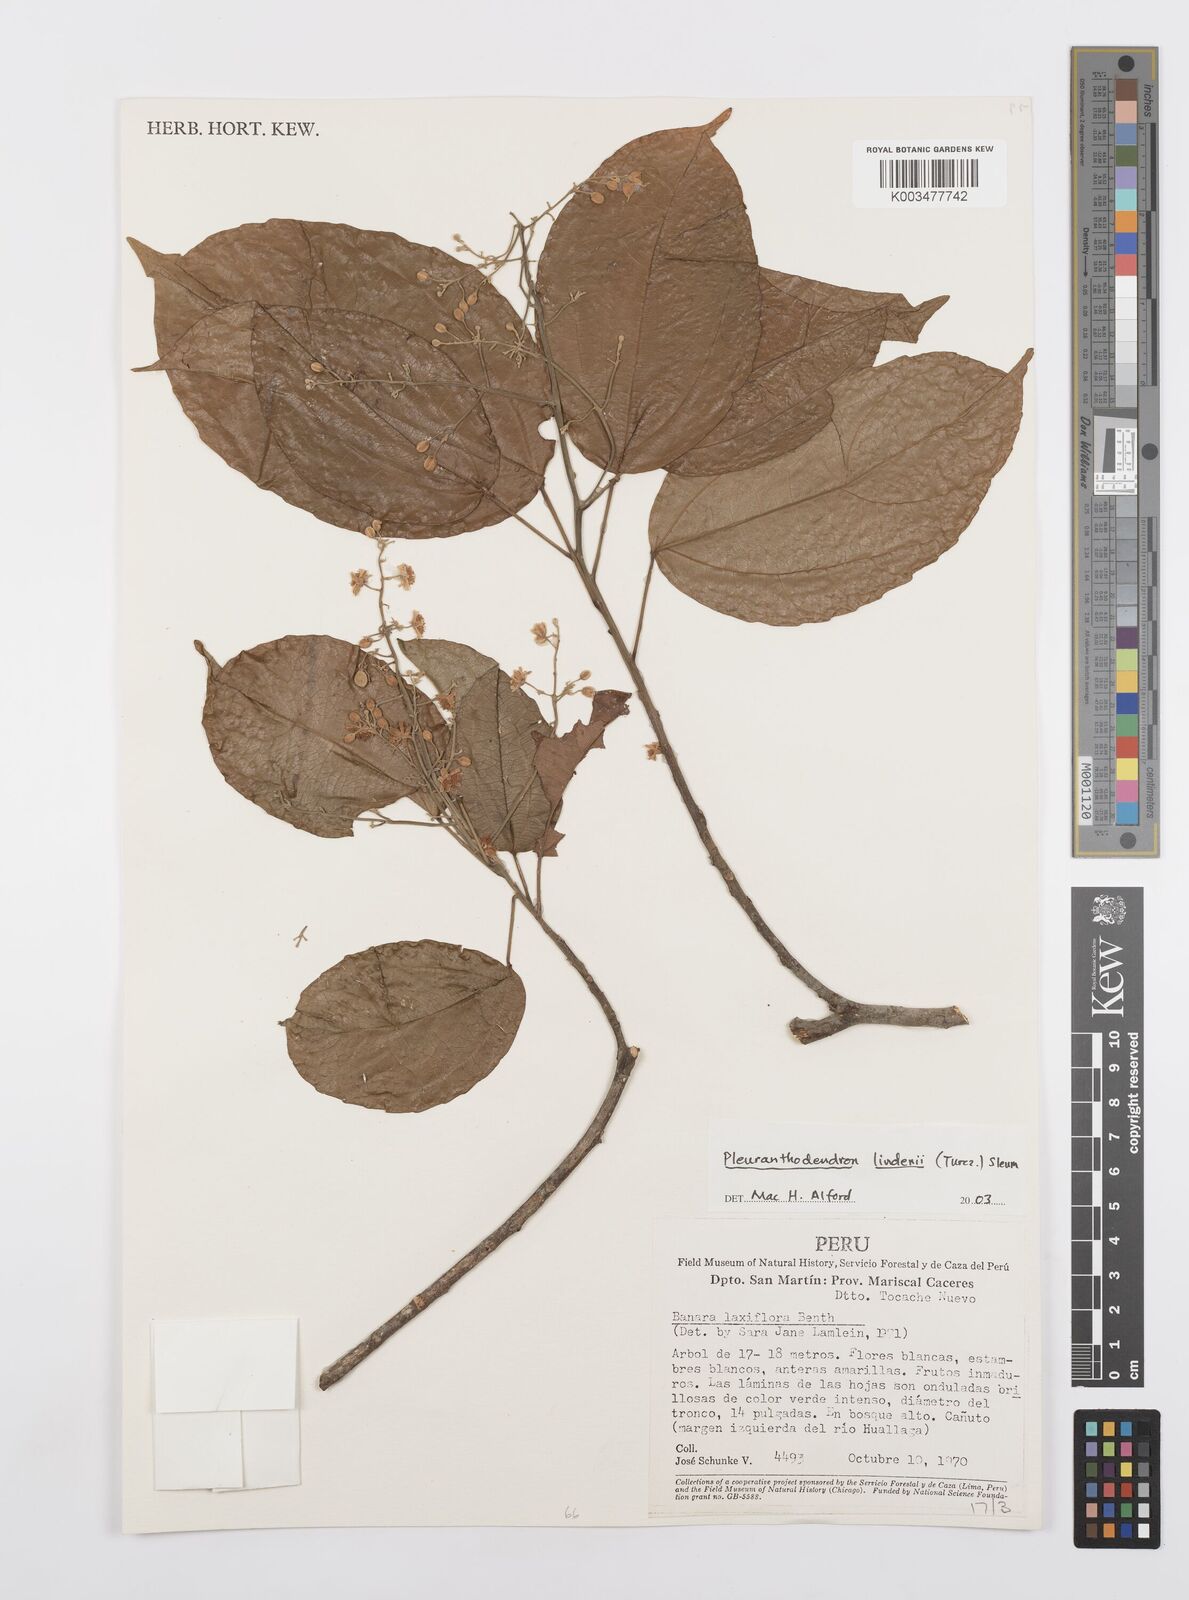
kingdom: Plantae
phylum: Tracheophyta
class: Magnoliopsida
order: Malpighiales
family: Salicaceae
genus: Pleuranthodendron
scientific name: Pleuranthodendron lindenii
